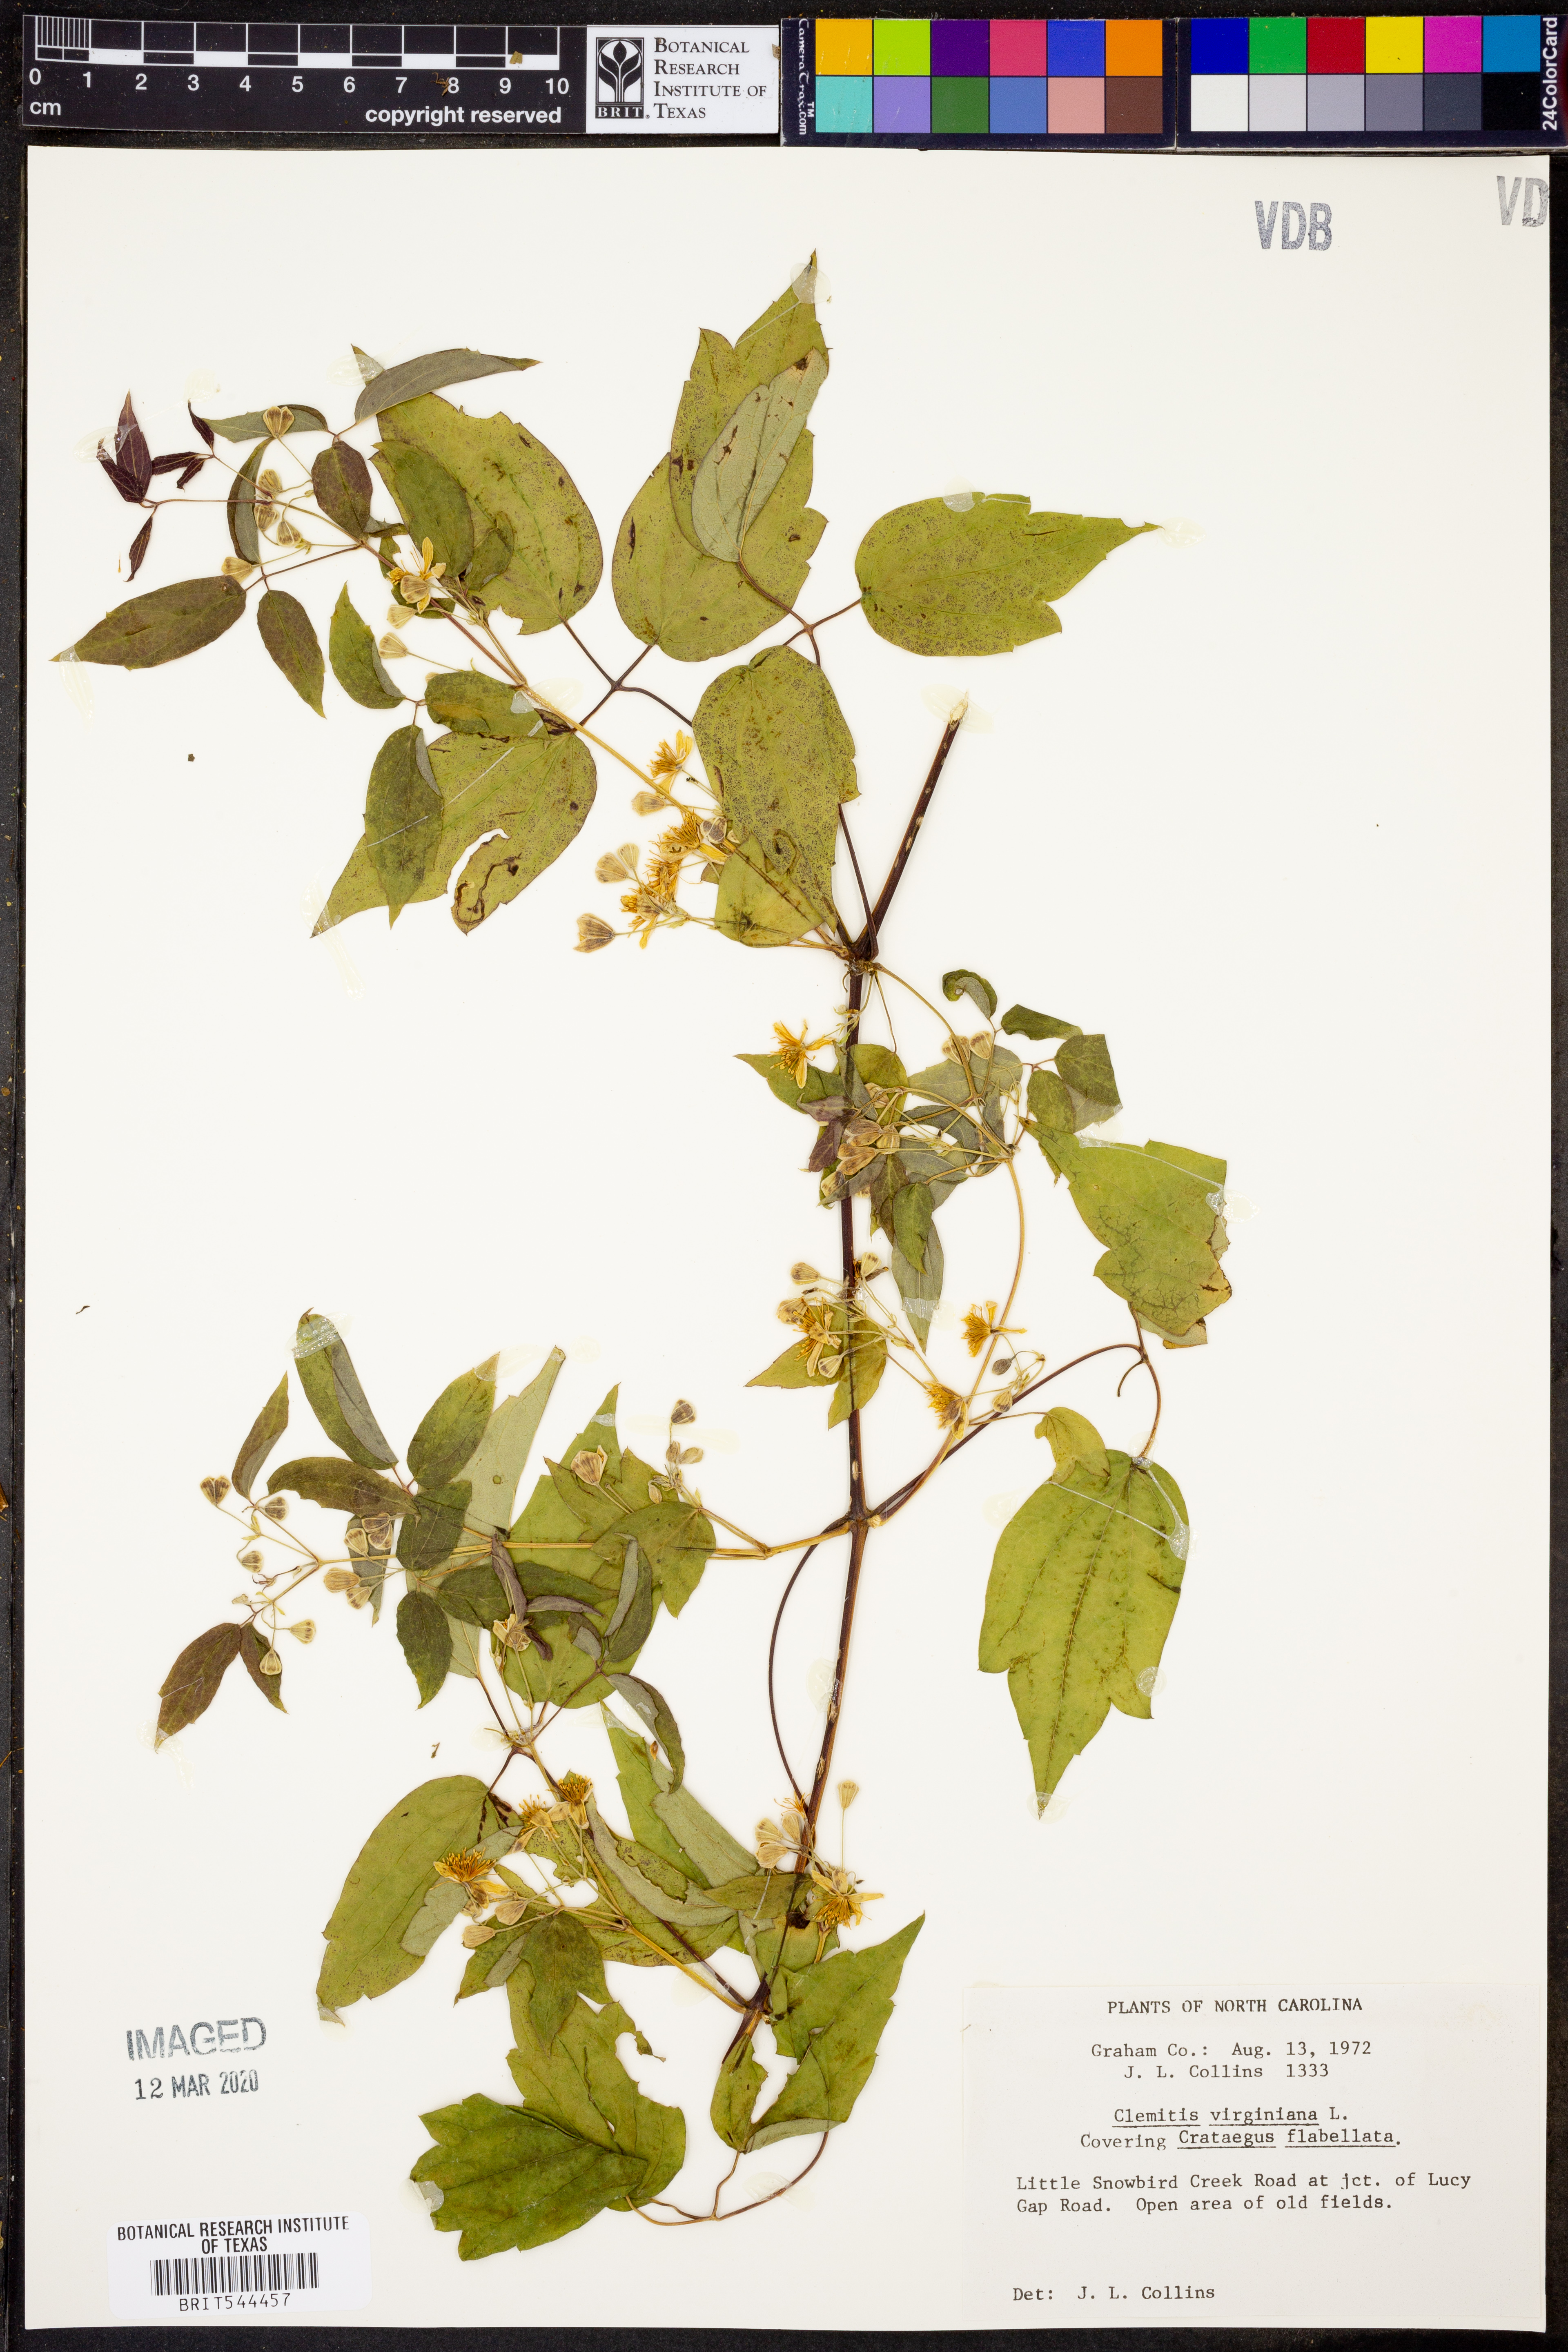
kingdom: Plantae
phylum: Tracheophyta
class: Magnoliopsida
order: Ranunculales
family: Ranunculaceae
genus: Clematis
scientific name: Clematis virginiana
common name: Virgin's-bower
